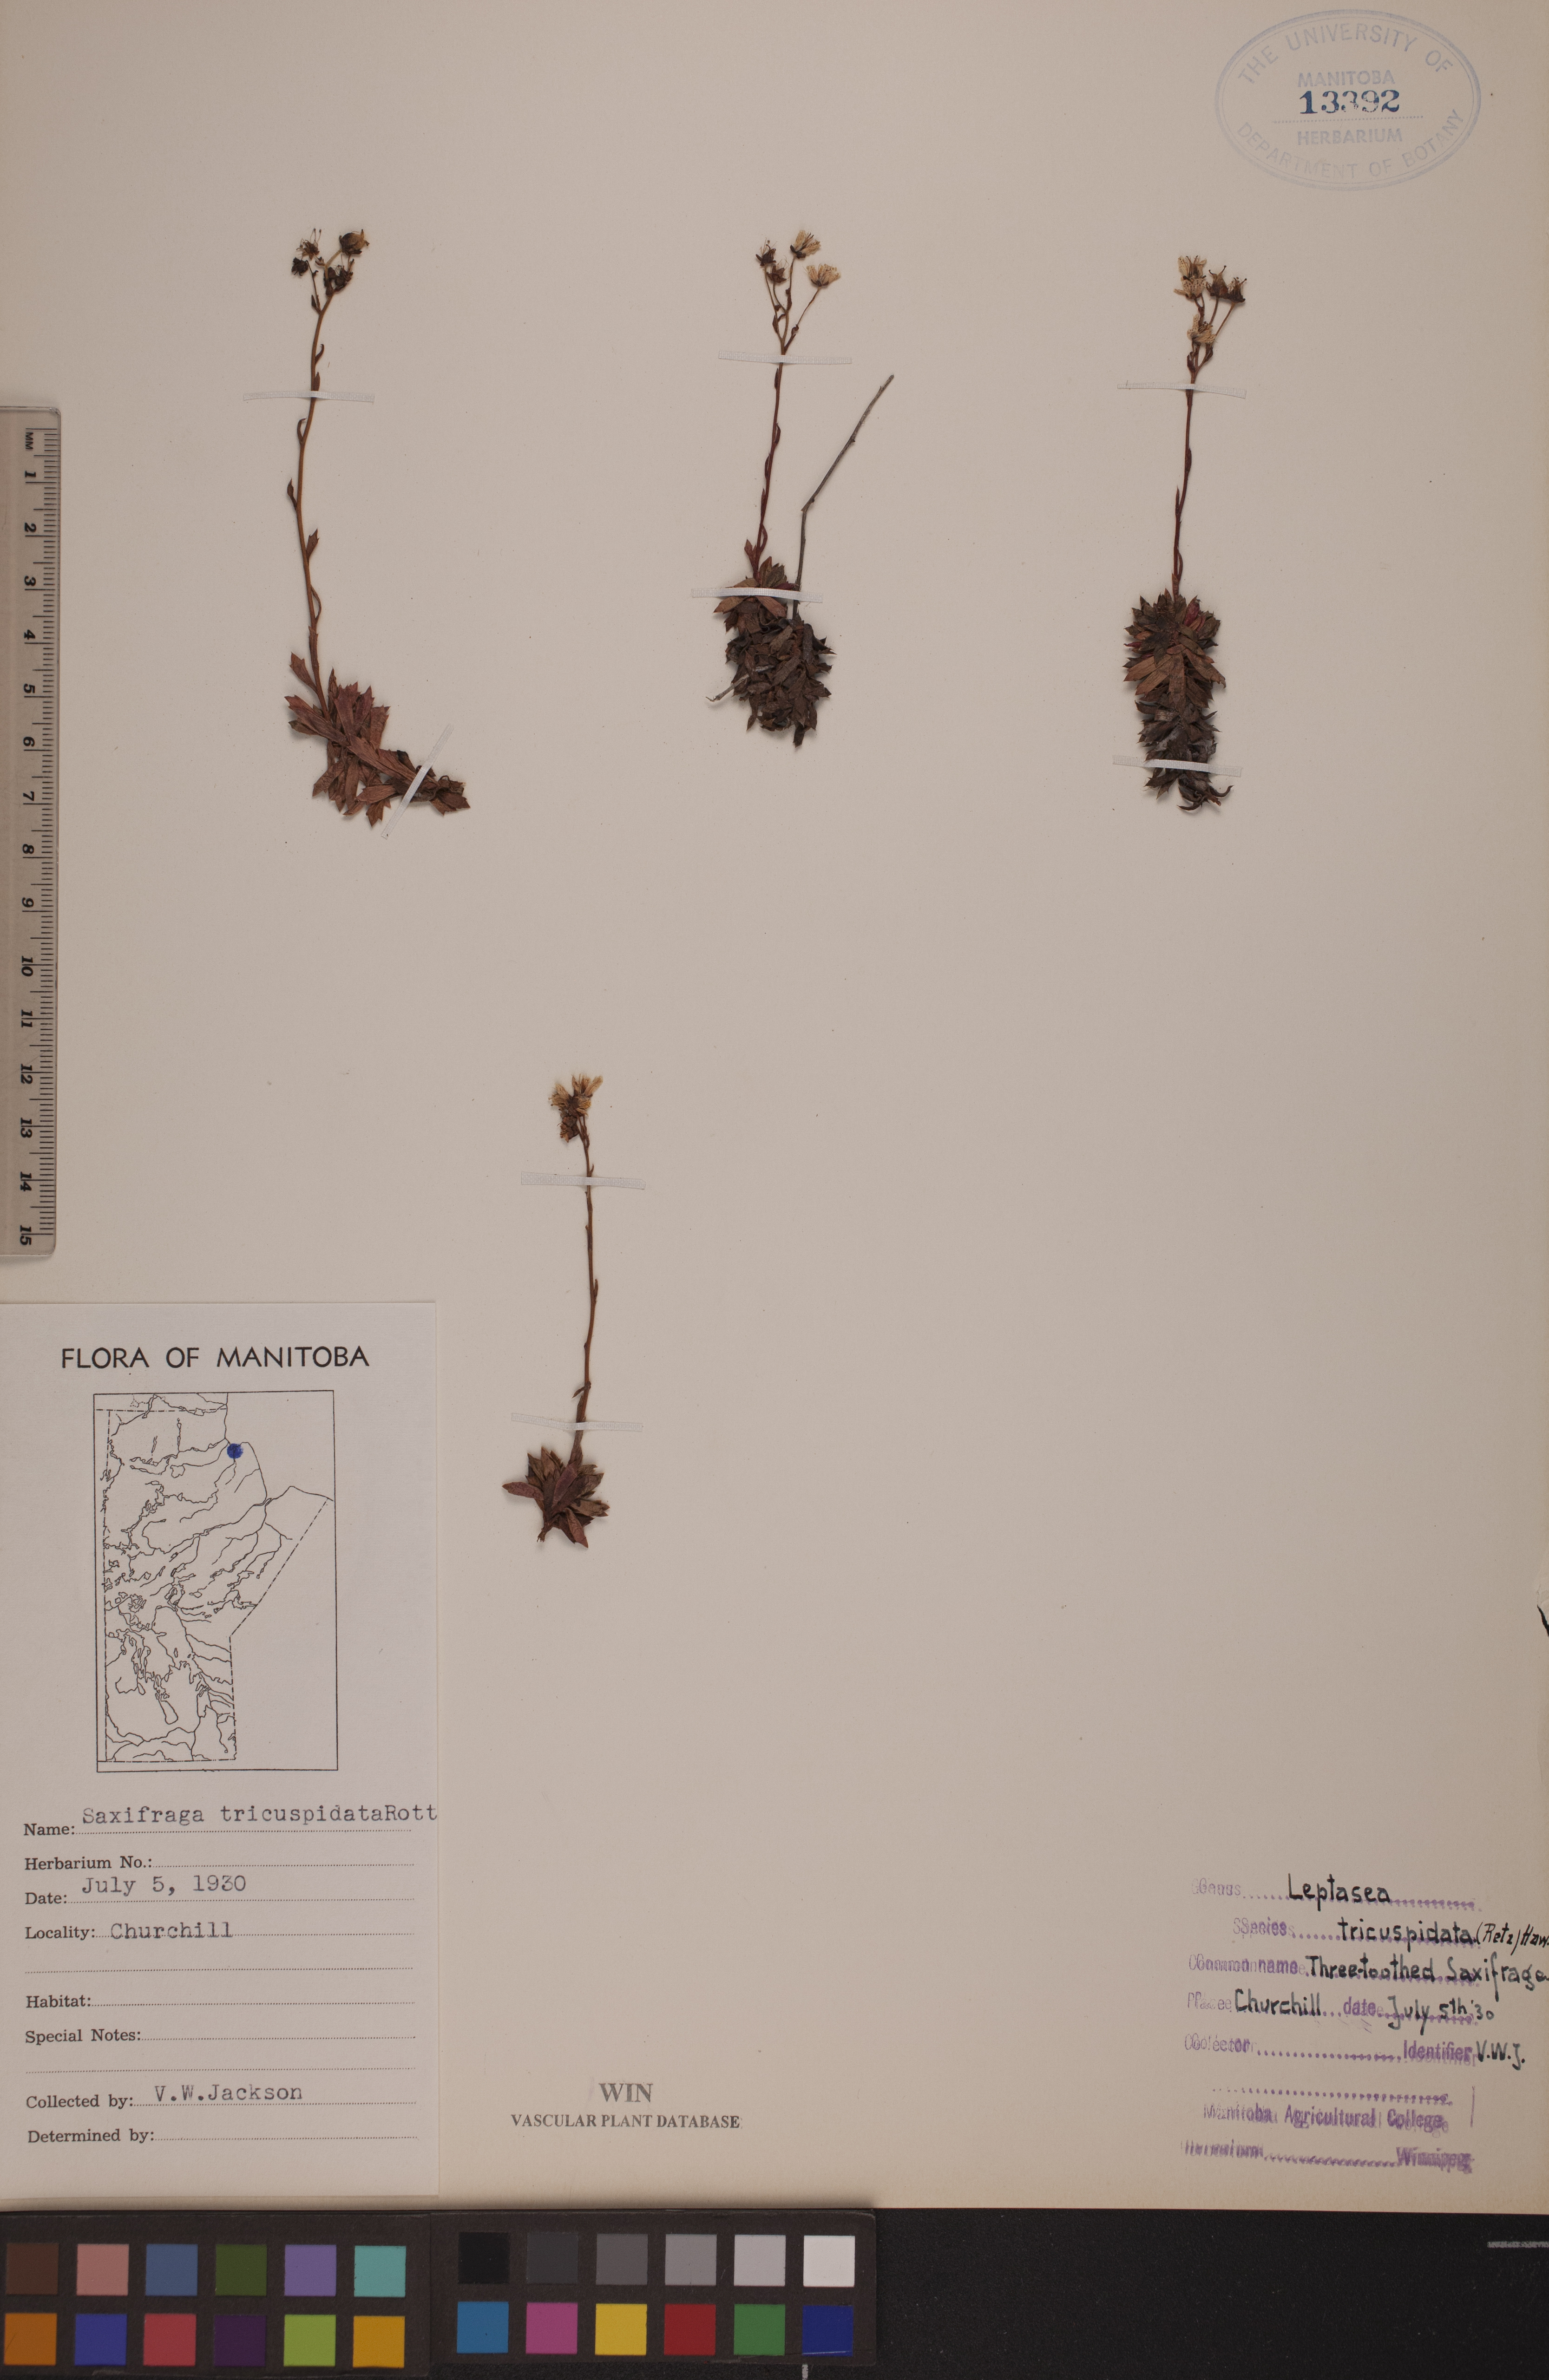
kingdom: Plantae
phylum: Tracheophyta
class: Magnoliopsida
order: Saxifragales
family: Saxifragaceae
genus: Saxifraga
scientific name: Saxifraga tricuspidata
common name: Prickly saxifrage
